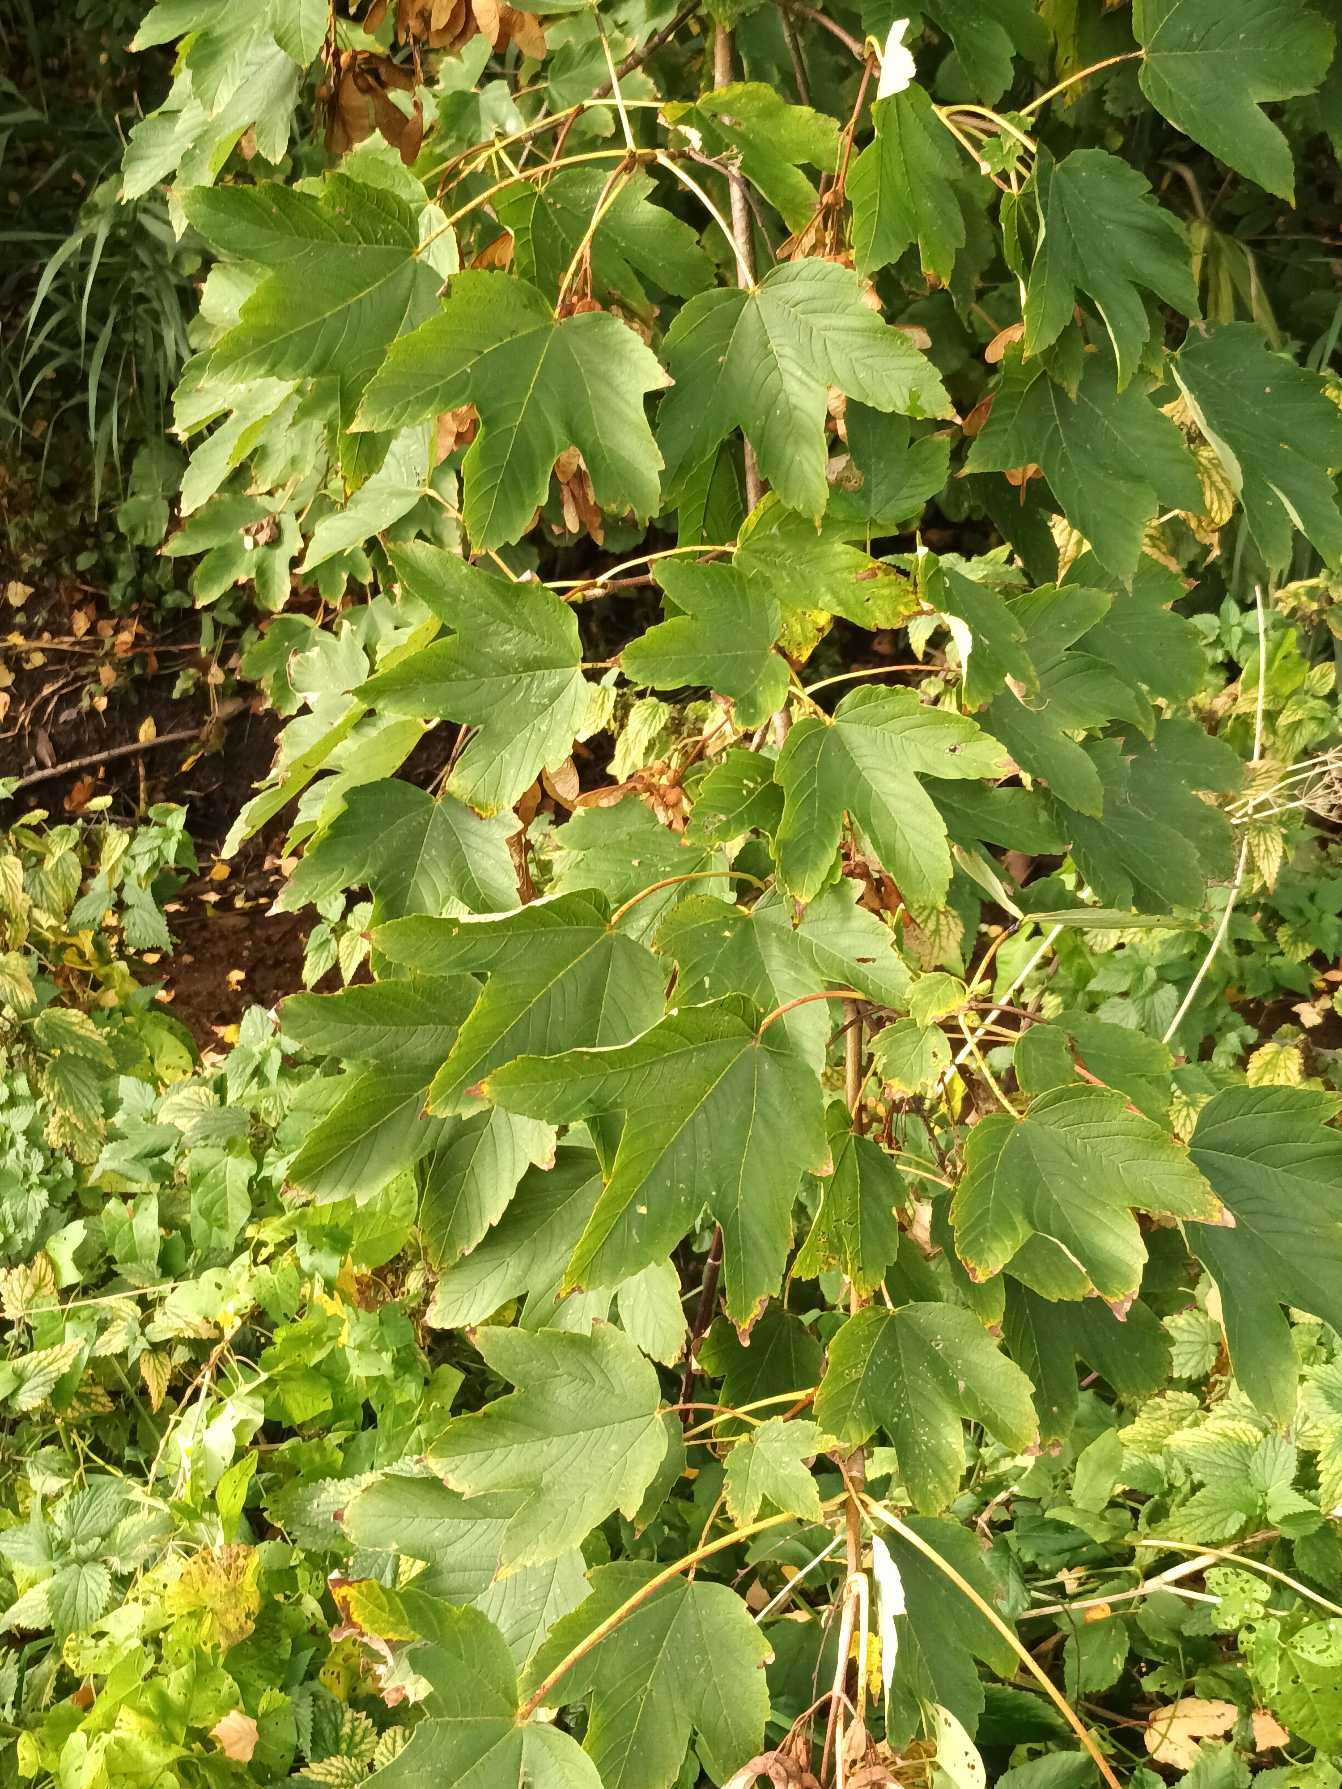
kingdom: Plantae
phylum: Tracheophyta
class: Magnoliopsida
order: Sapindales
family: Sapindaceae
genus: Acer
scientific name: Acer pseudoplatanus
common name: Ahorn
